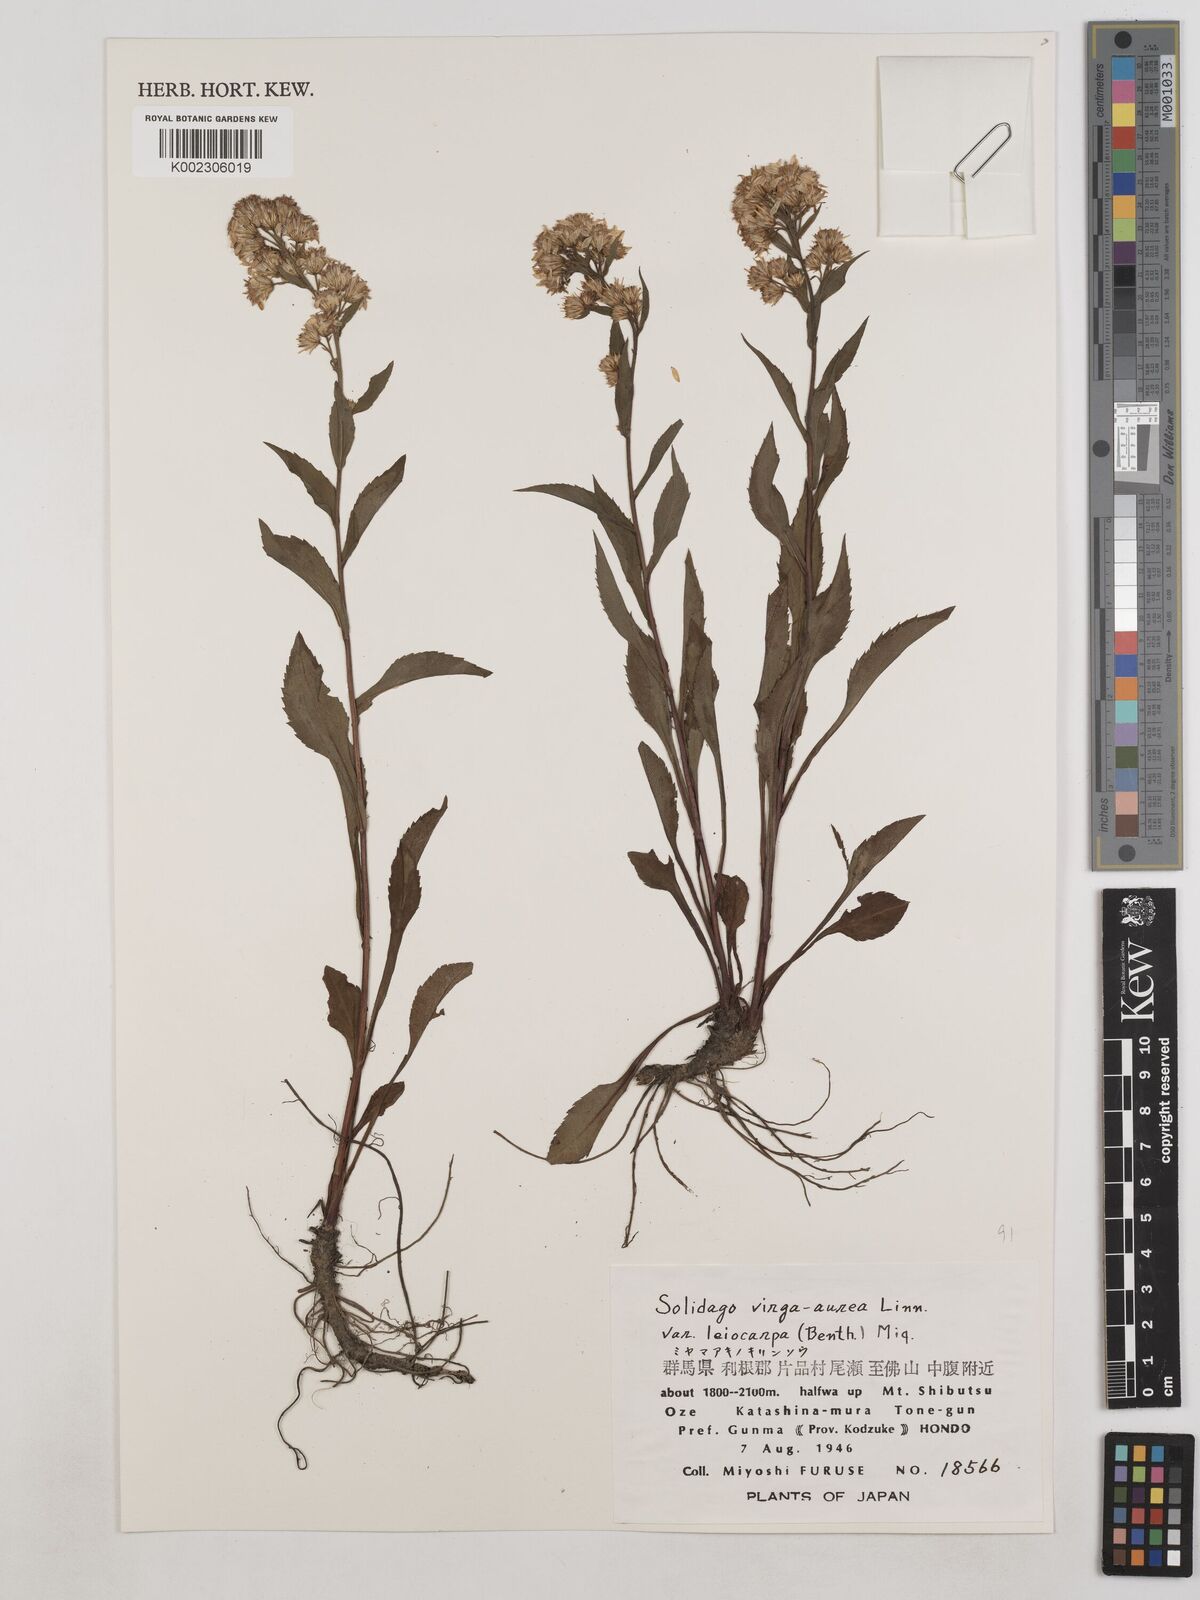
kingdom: Plantae
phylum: Tracheophyta
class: Magnoliopsida
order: Asterales
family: Asteraceae
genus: Solidago
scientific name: Solidago decurrens
